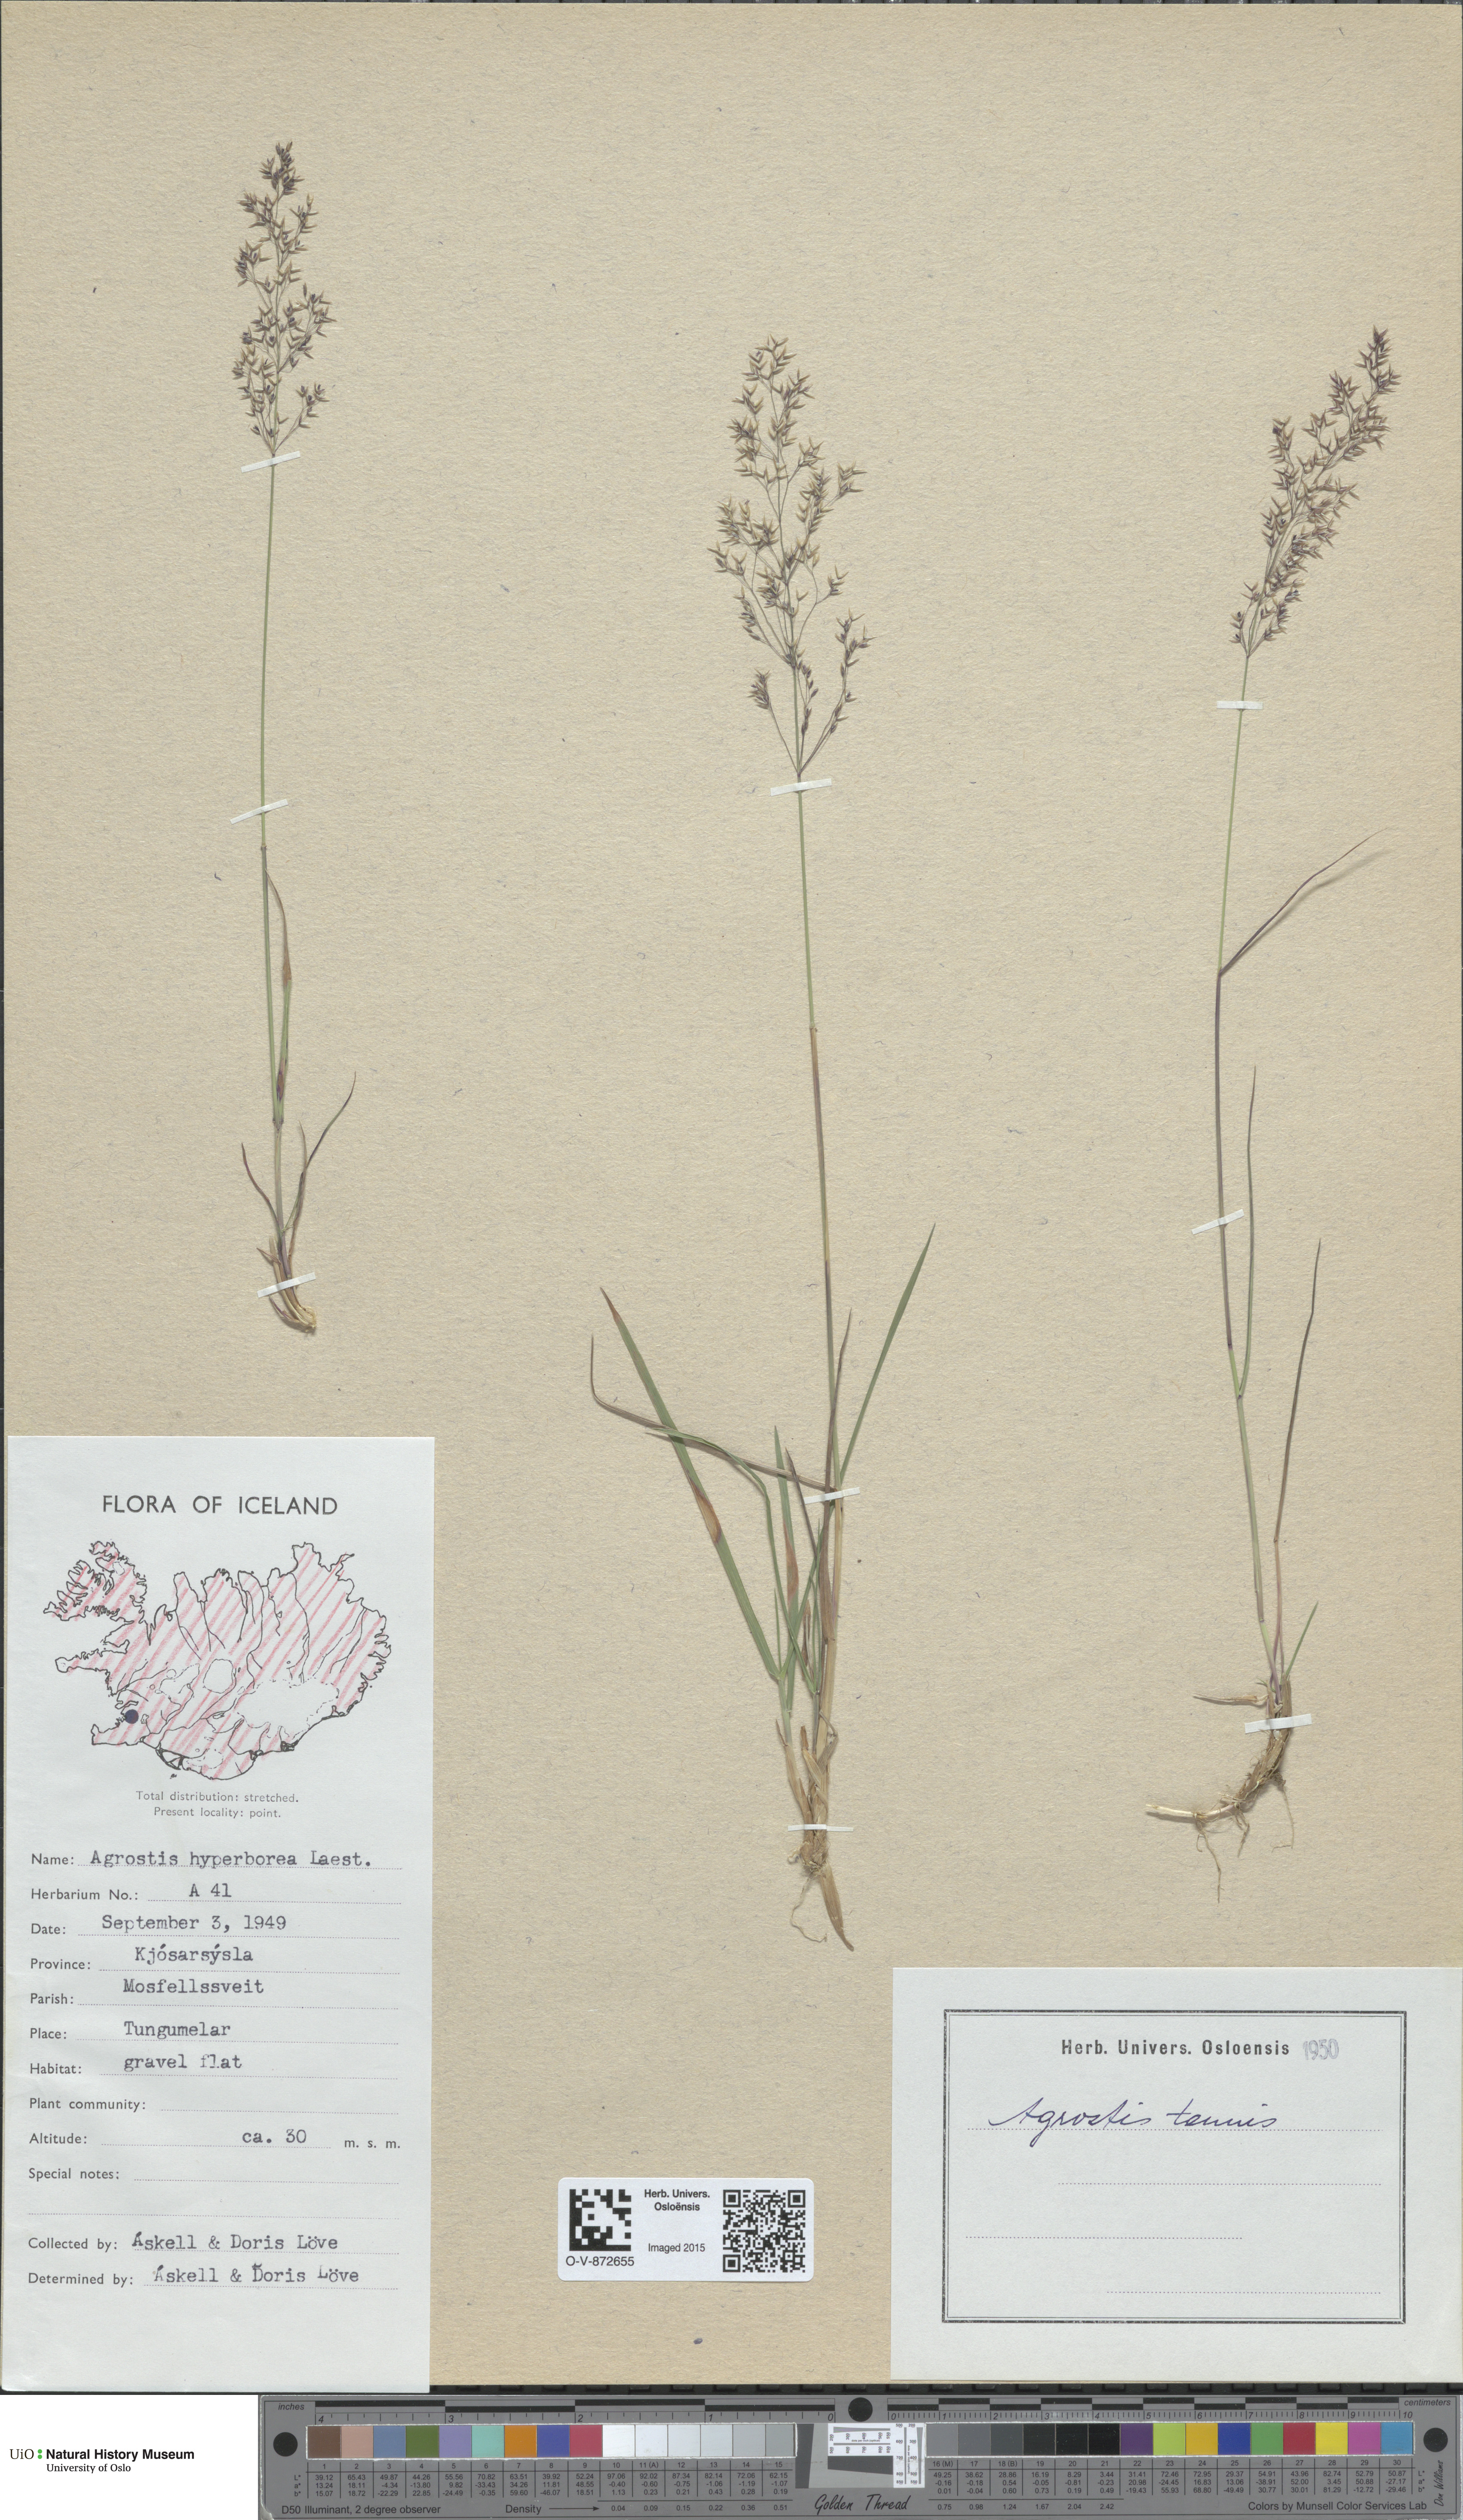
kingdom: Plantae
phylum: Tracheophyta
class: Liliopsida
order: Poales
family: Poaceae
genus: Agrostis
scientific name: Agrostis vinealis
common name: Brown bent
